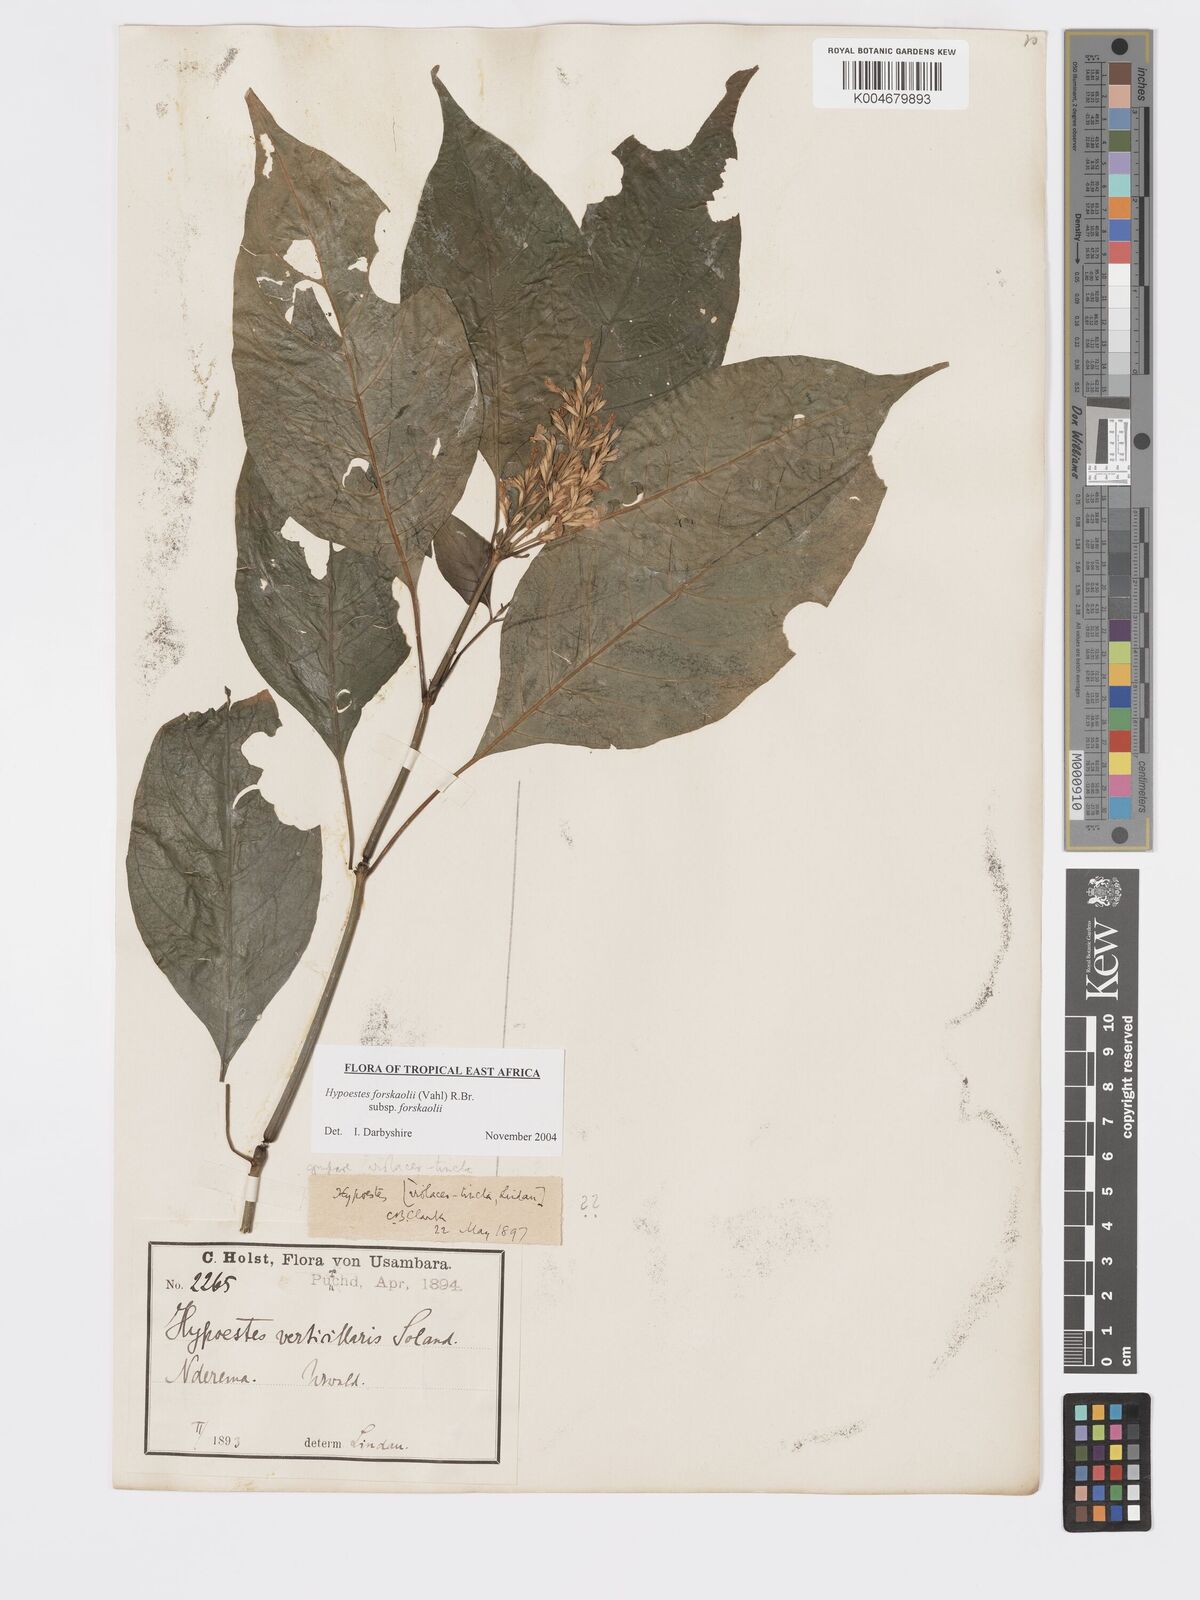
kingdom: Plantae
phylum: Tracheophyta
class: Magnoliopsida
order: Lamiales
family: Acanthaceae
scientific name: Acanthaceae
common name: Acanthaceae
